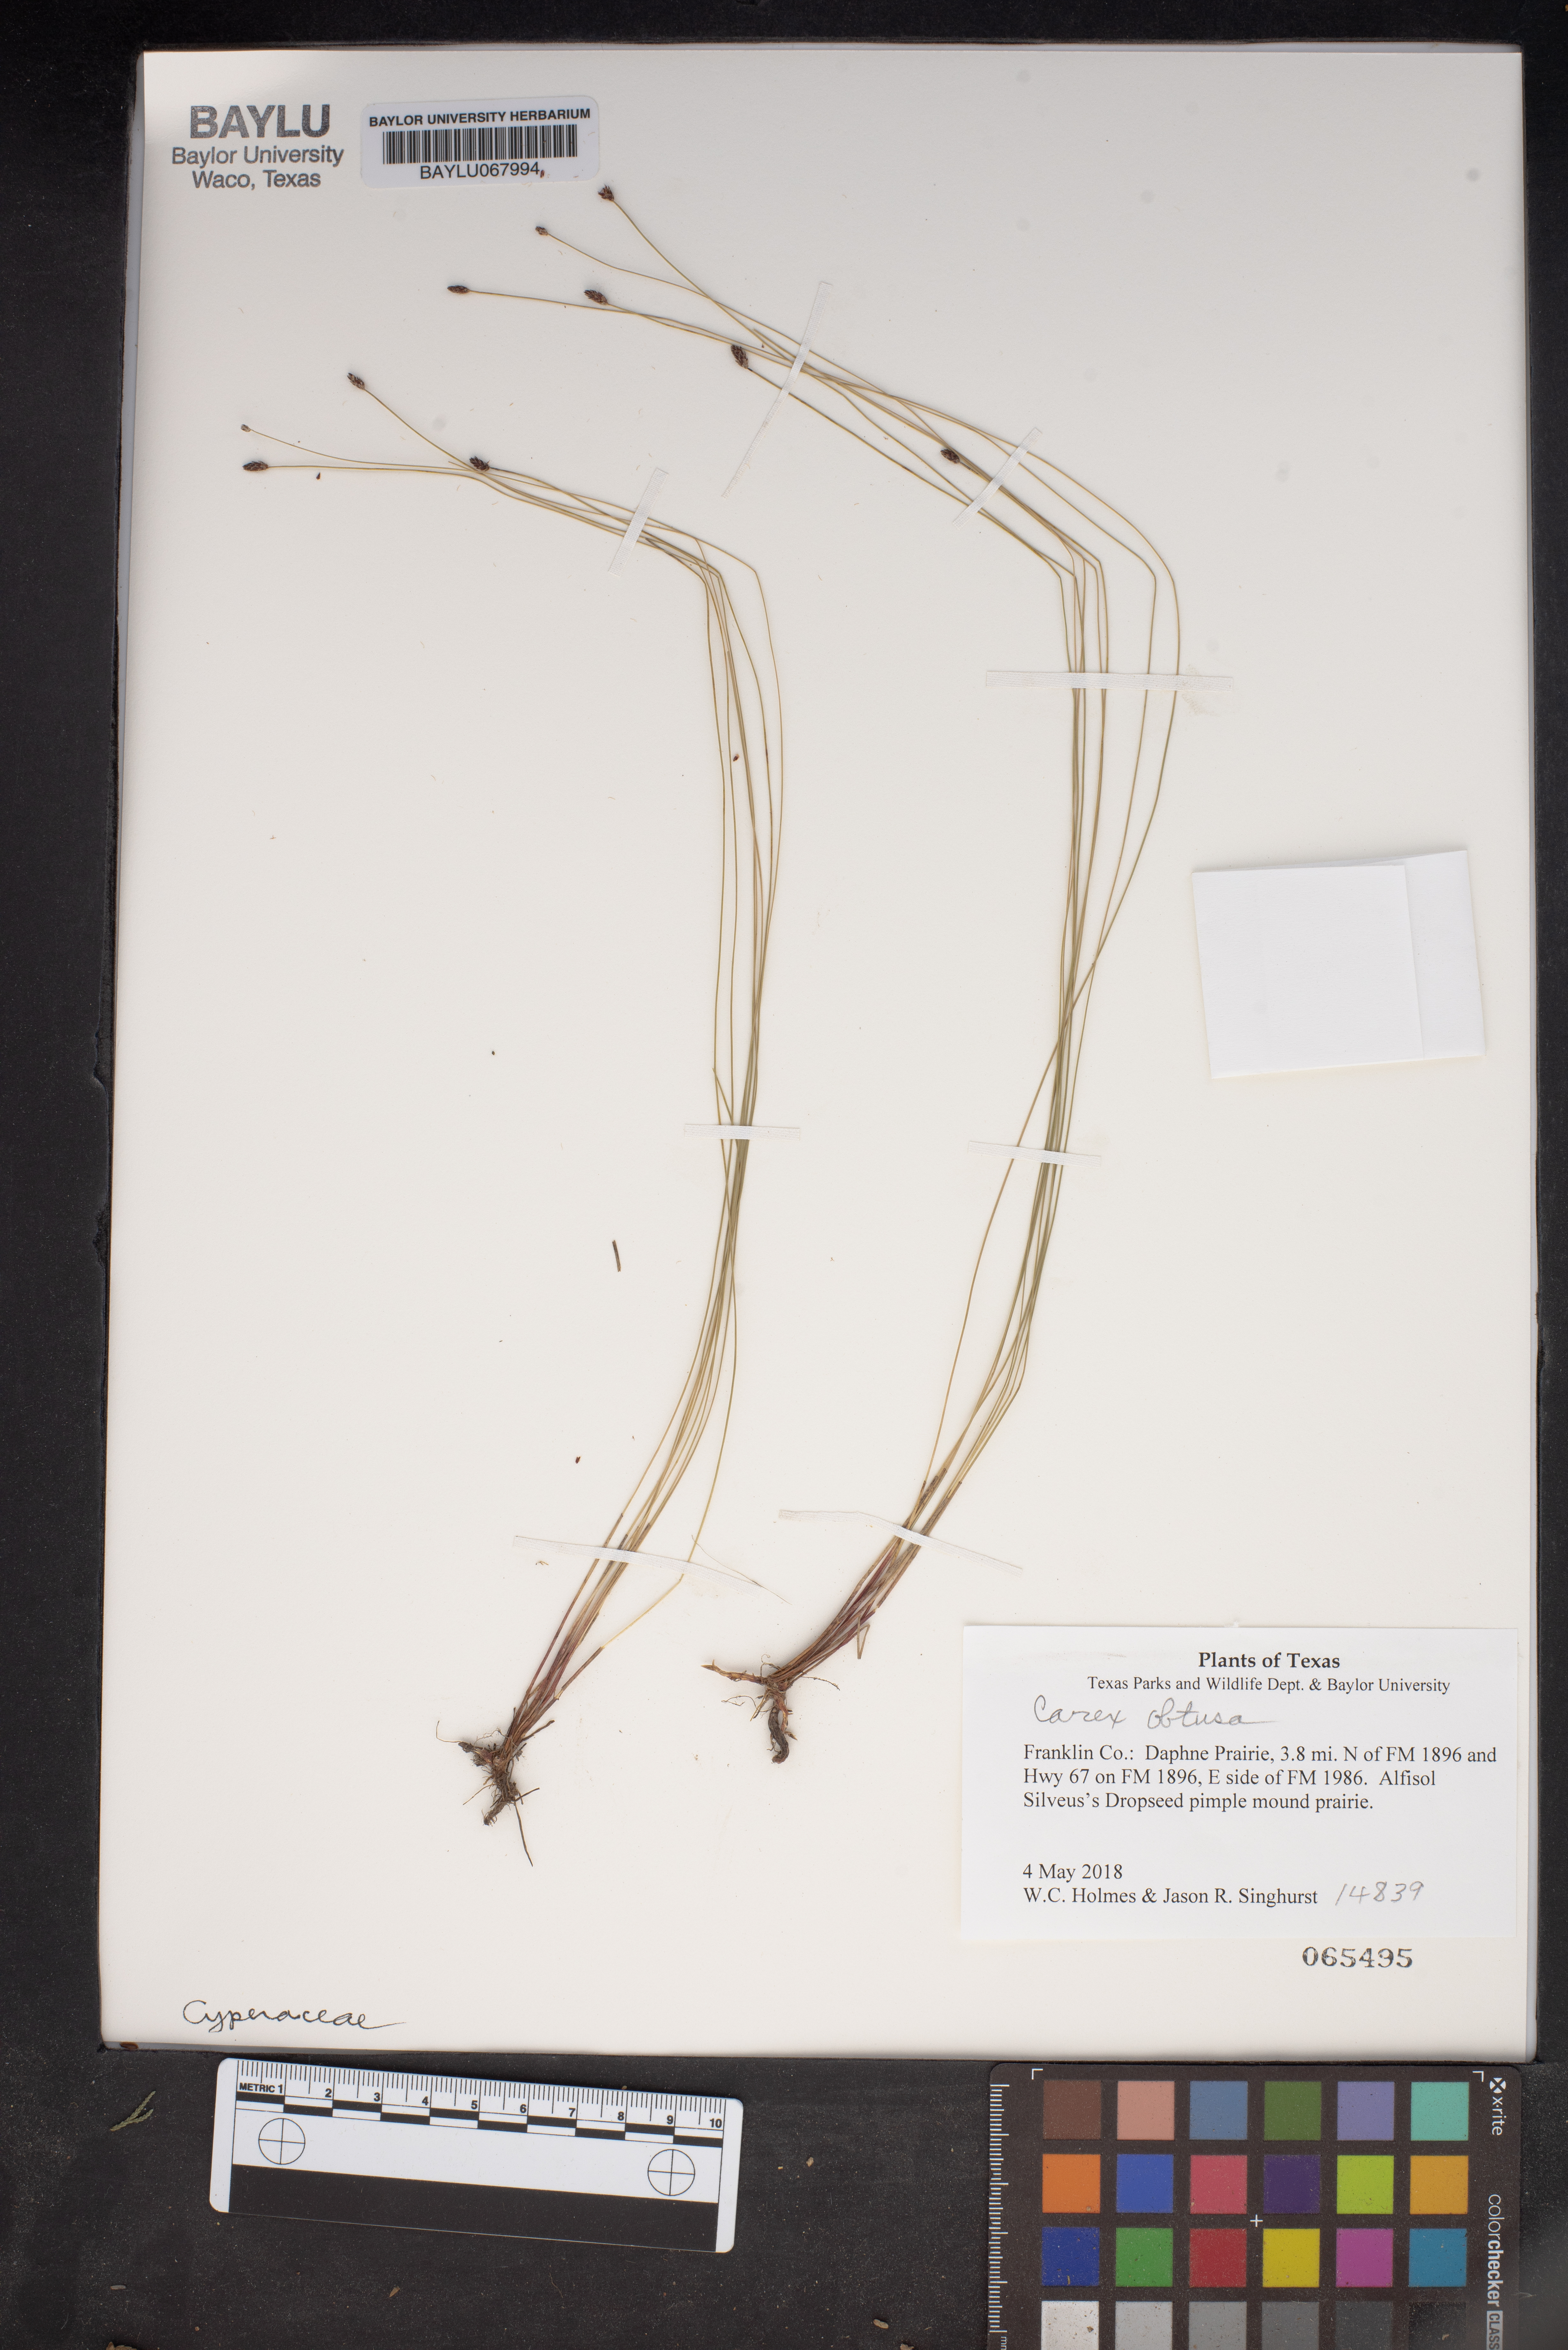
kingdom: Plantae
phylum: Tracheophyta
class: Liliopsida
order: Poales
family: Cyperaceae
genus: Carex
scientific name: Carex obtusata
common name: Blunt sedge
